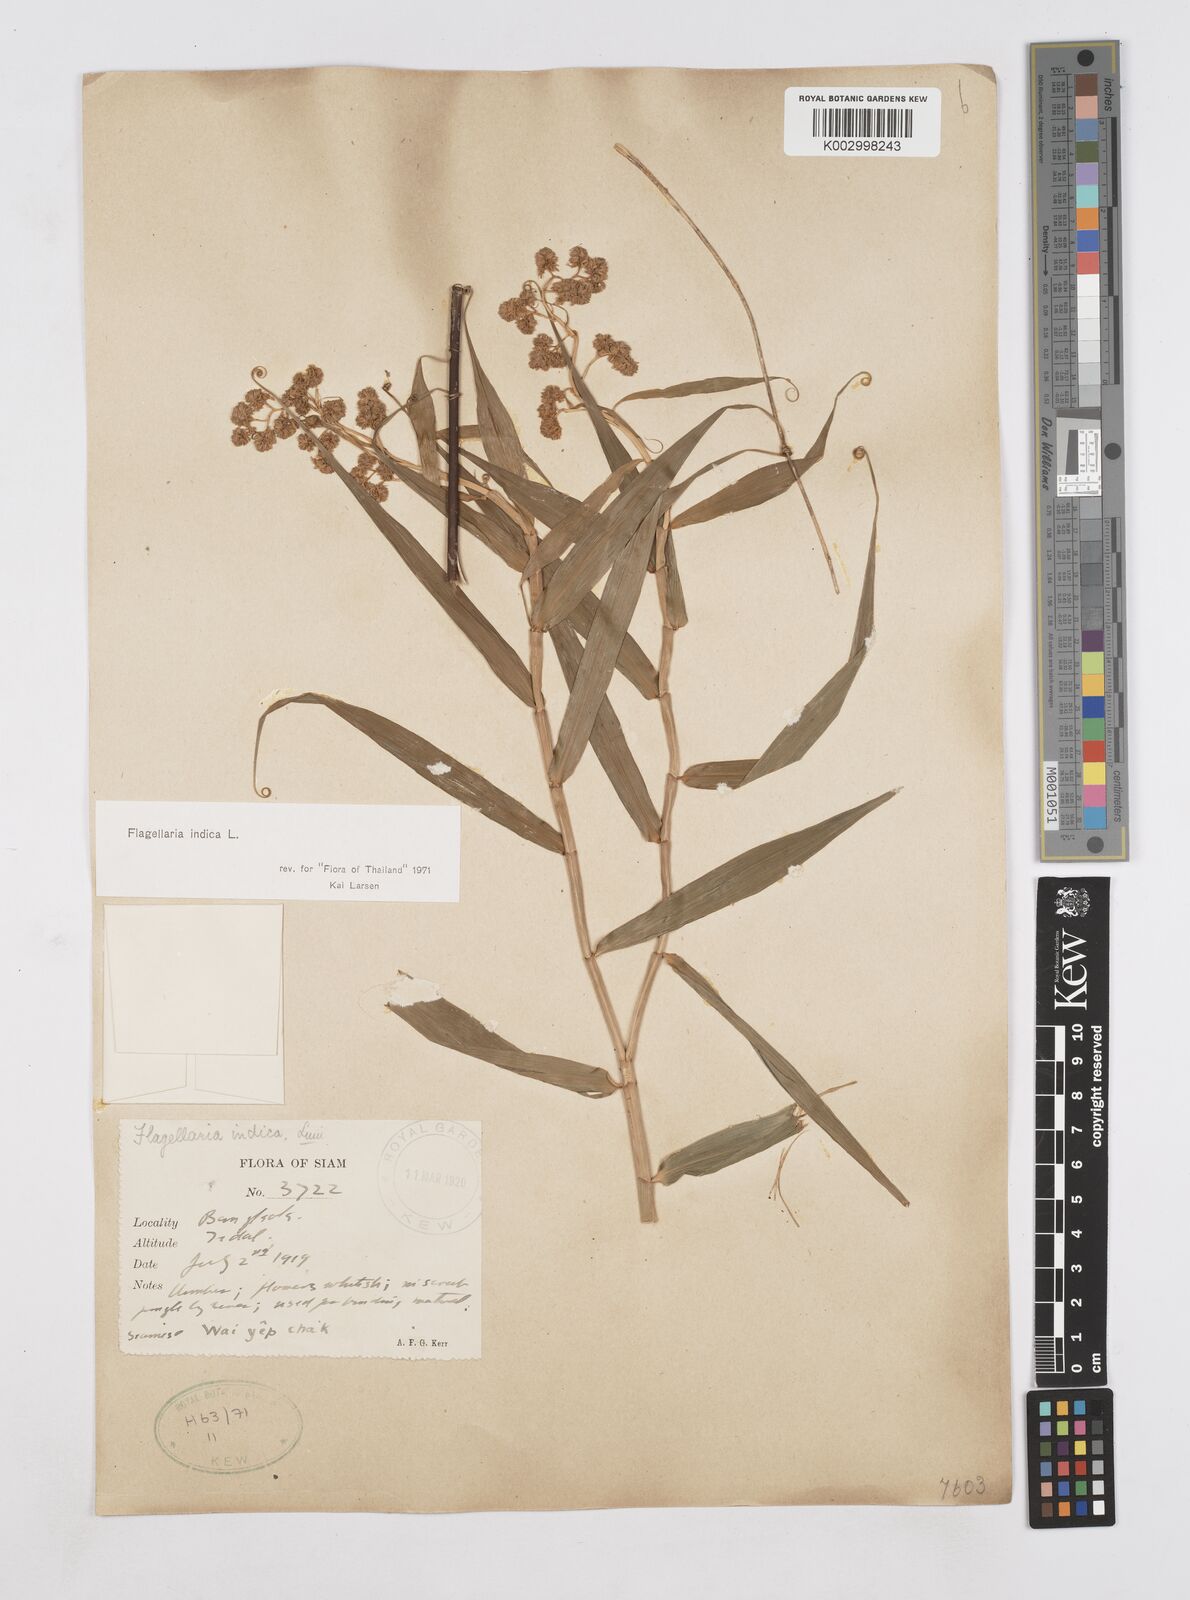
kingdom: Plantae
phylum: Tracheophyta
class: Liliopsida
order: Poales
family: Flagellariaceae
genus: Flagellaria
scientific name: Flagellaria indica
